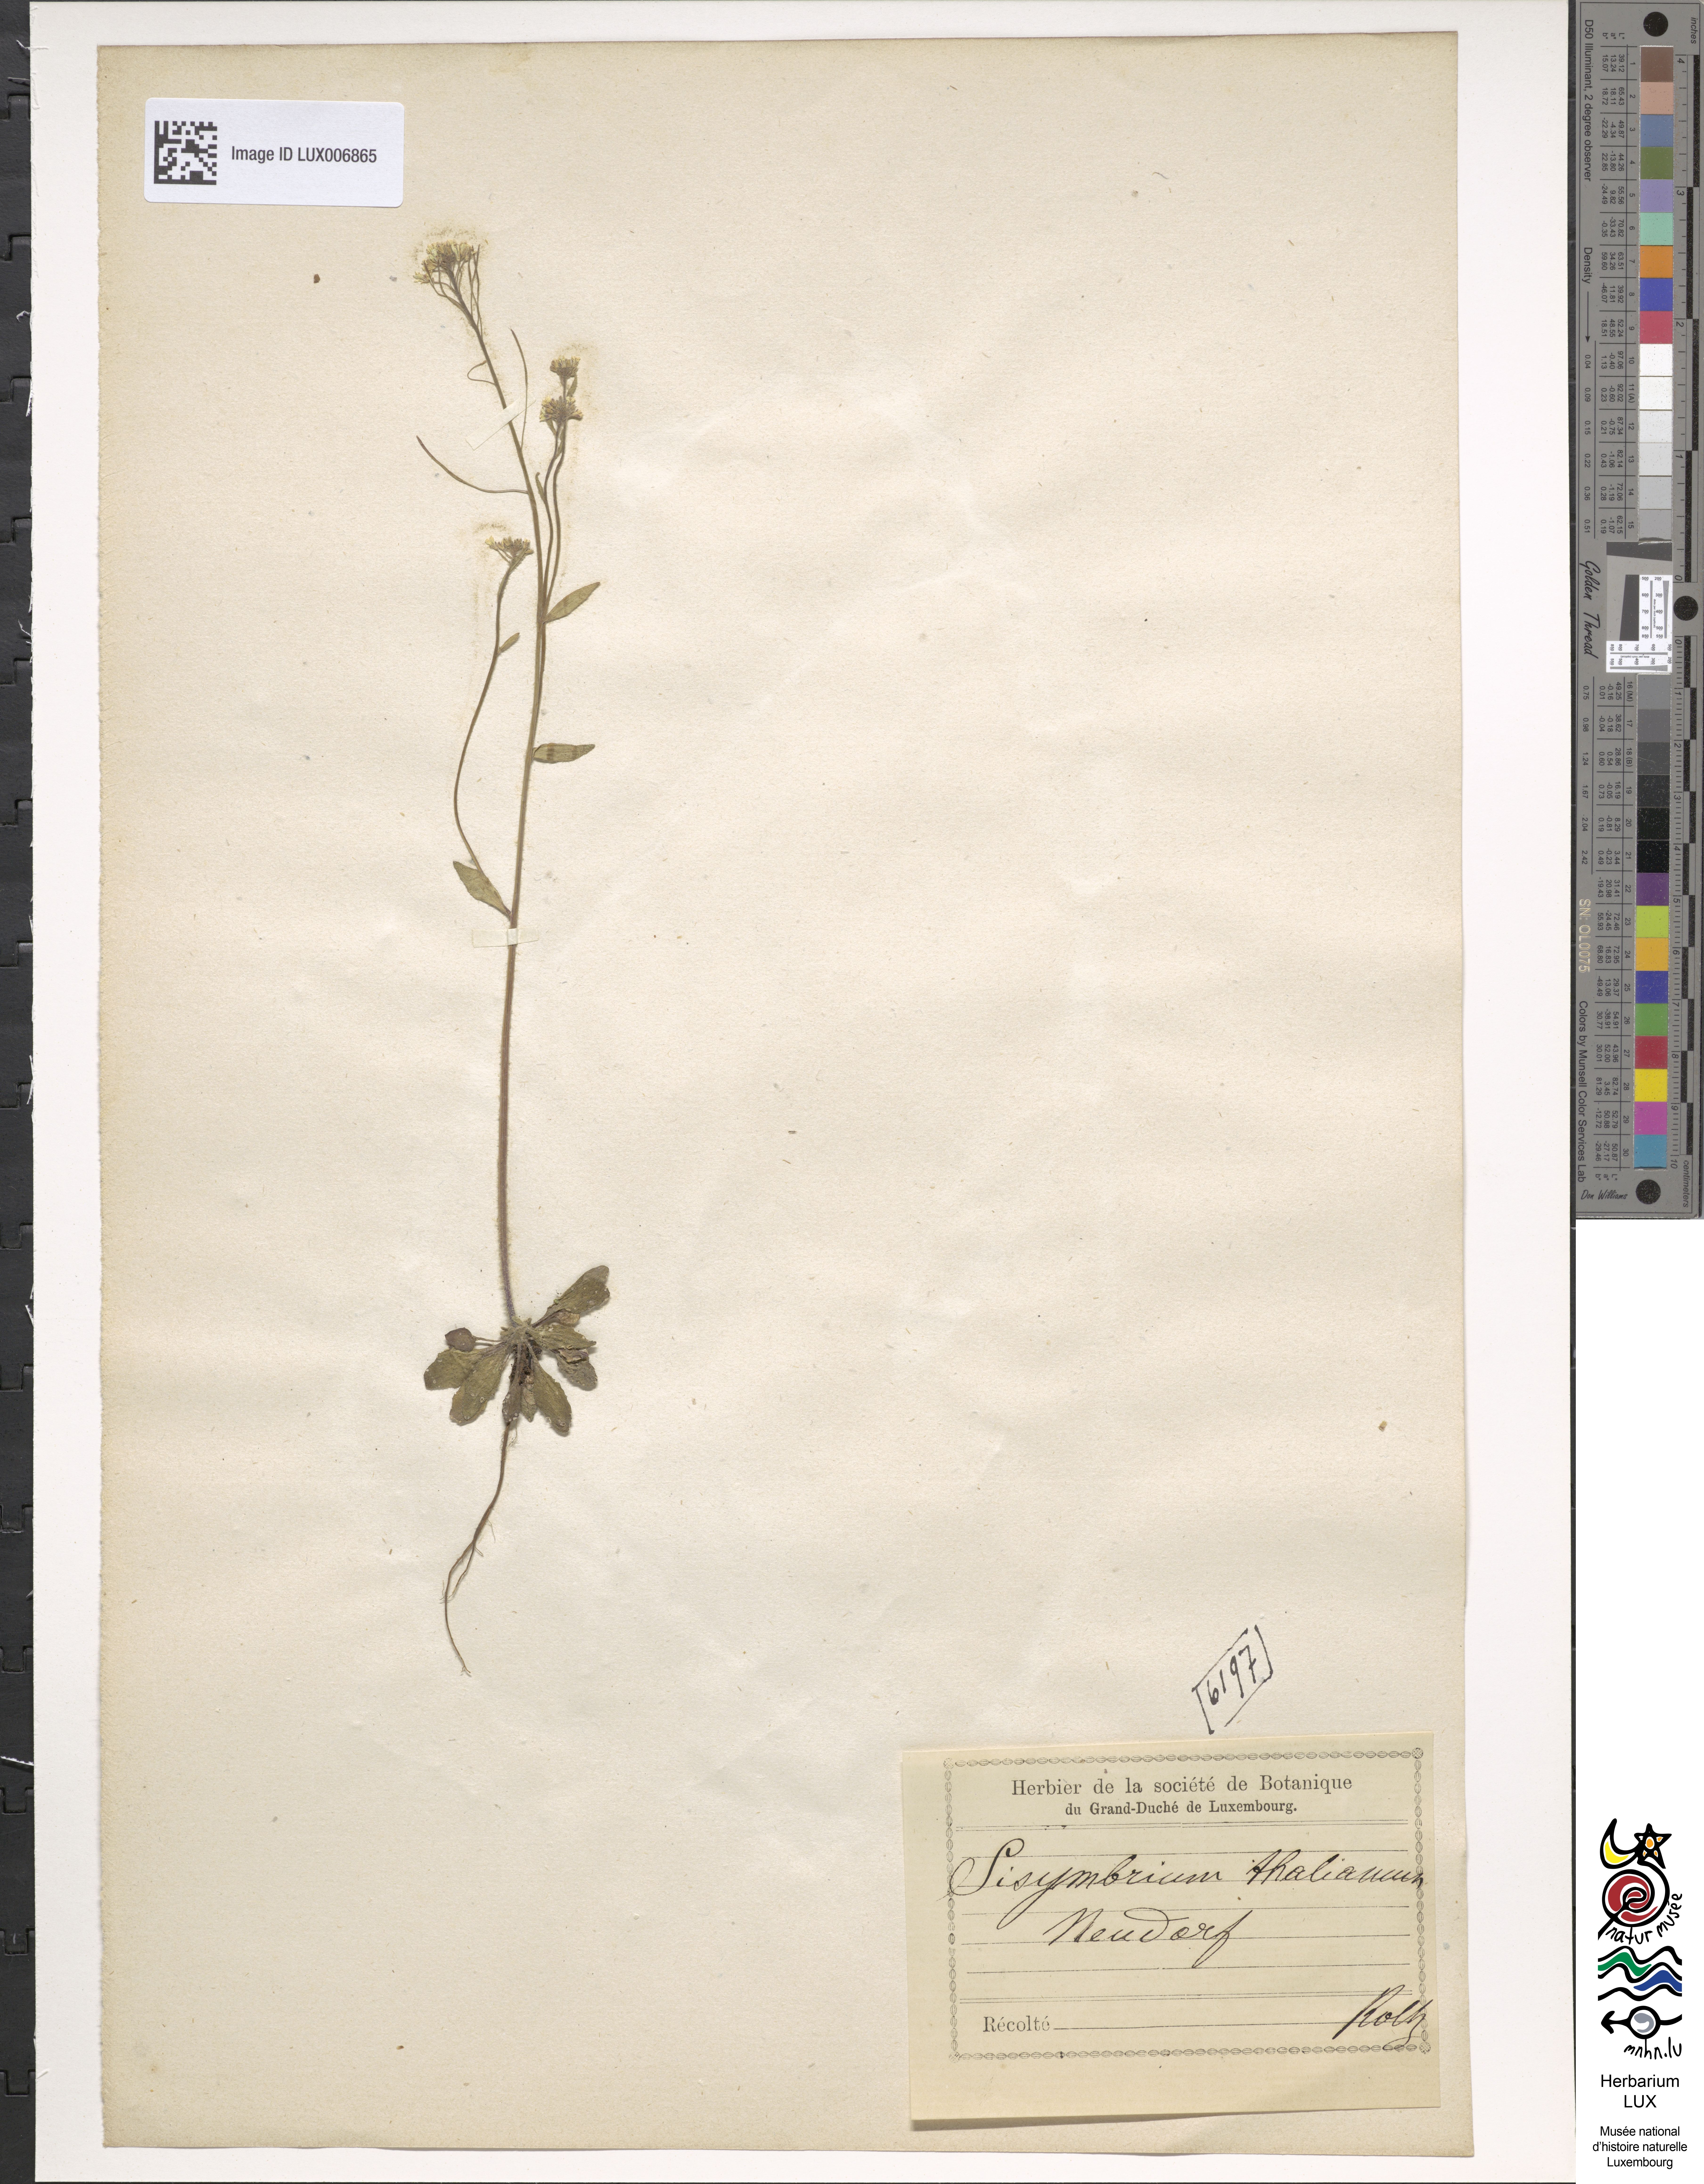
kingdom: Plantae
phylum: Tracheophyta
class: Magnoliopsida
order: Brassicales
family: Brassicaceae
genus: Arabidopsis
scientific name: Arabidopsis thaliana
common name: Thale cress
